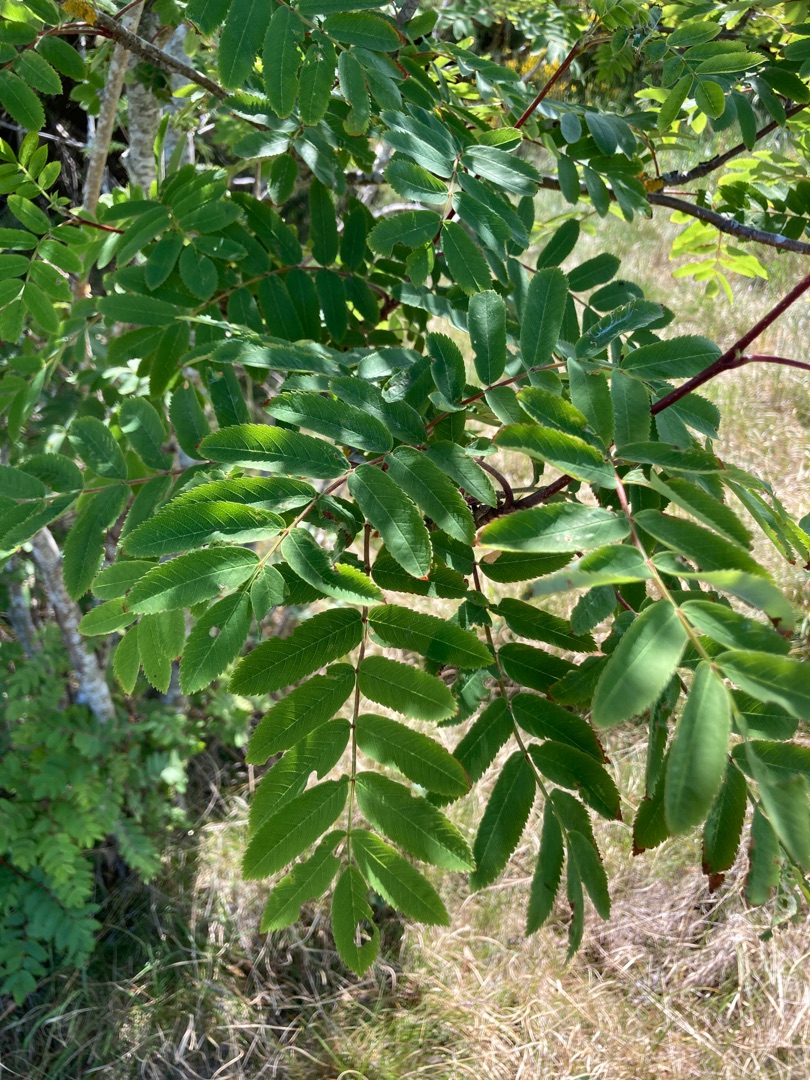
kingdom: Plantae
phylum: Tracheophyta
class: Magnoliopsida
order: Rosales
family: Rosaceae
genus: Sorbus
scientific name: Sorbus aucuparia
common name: Almindelig røn
